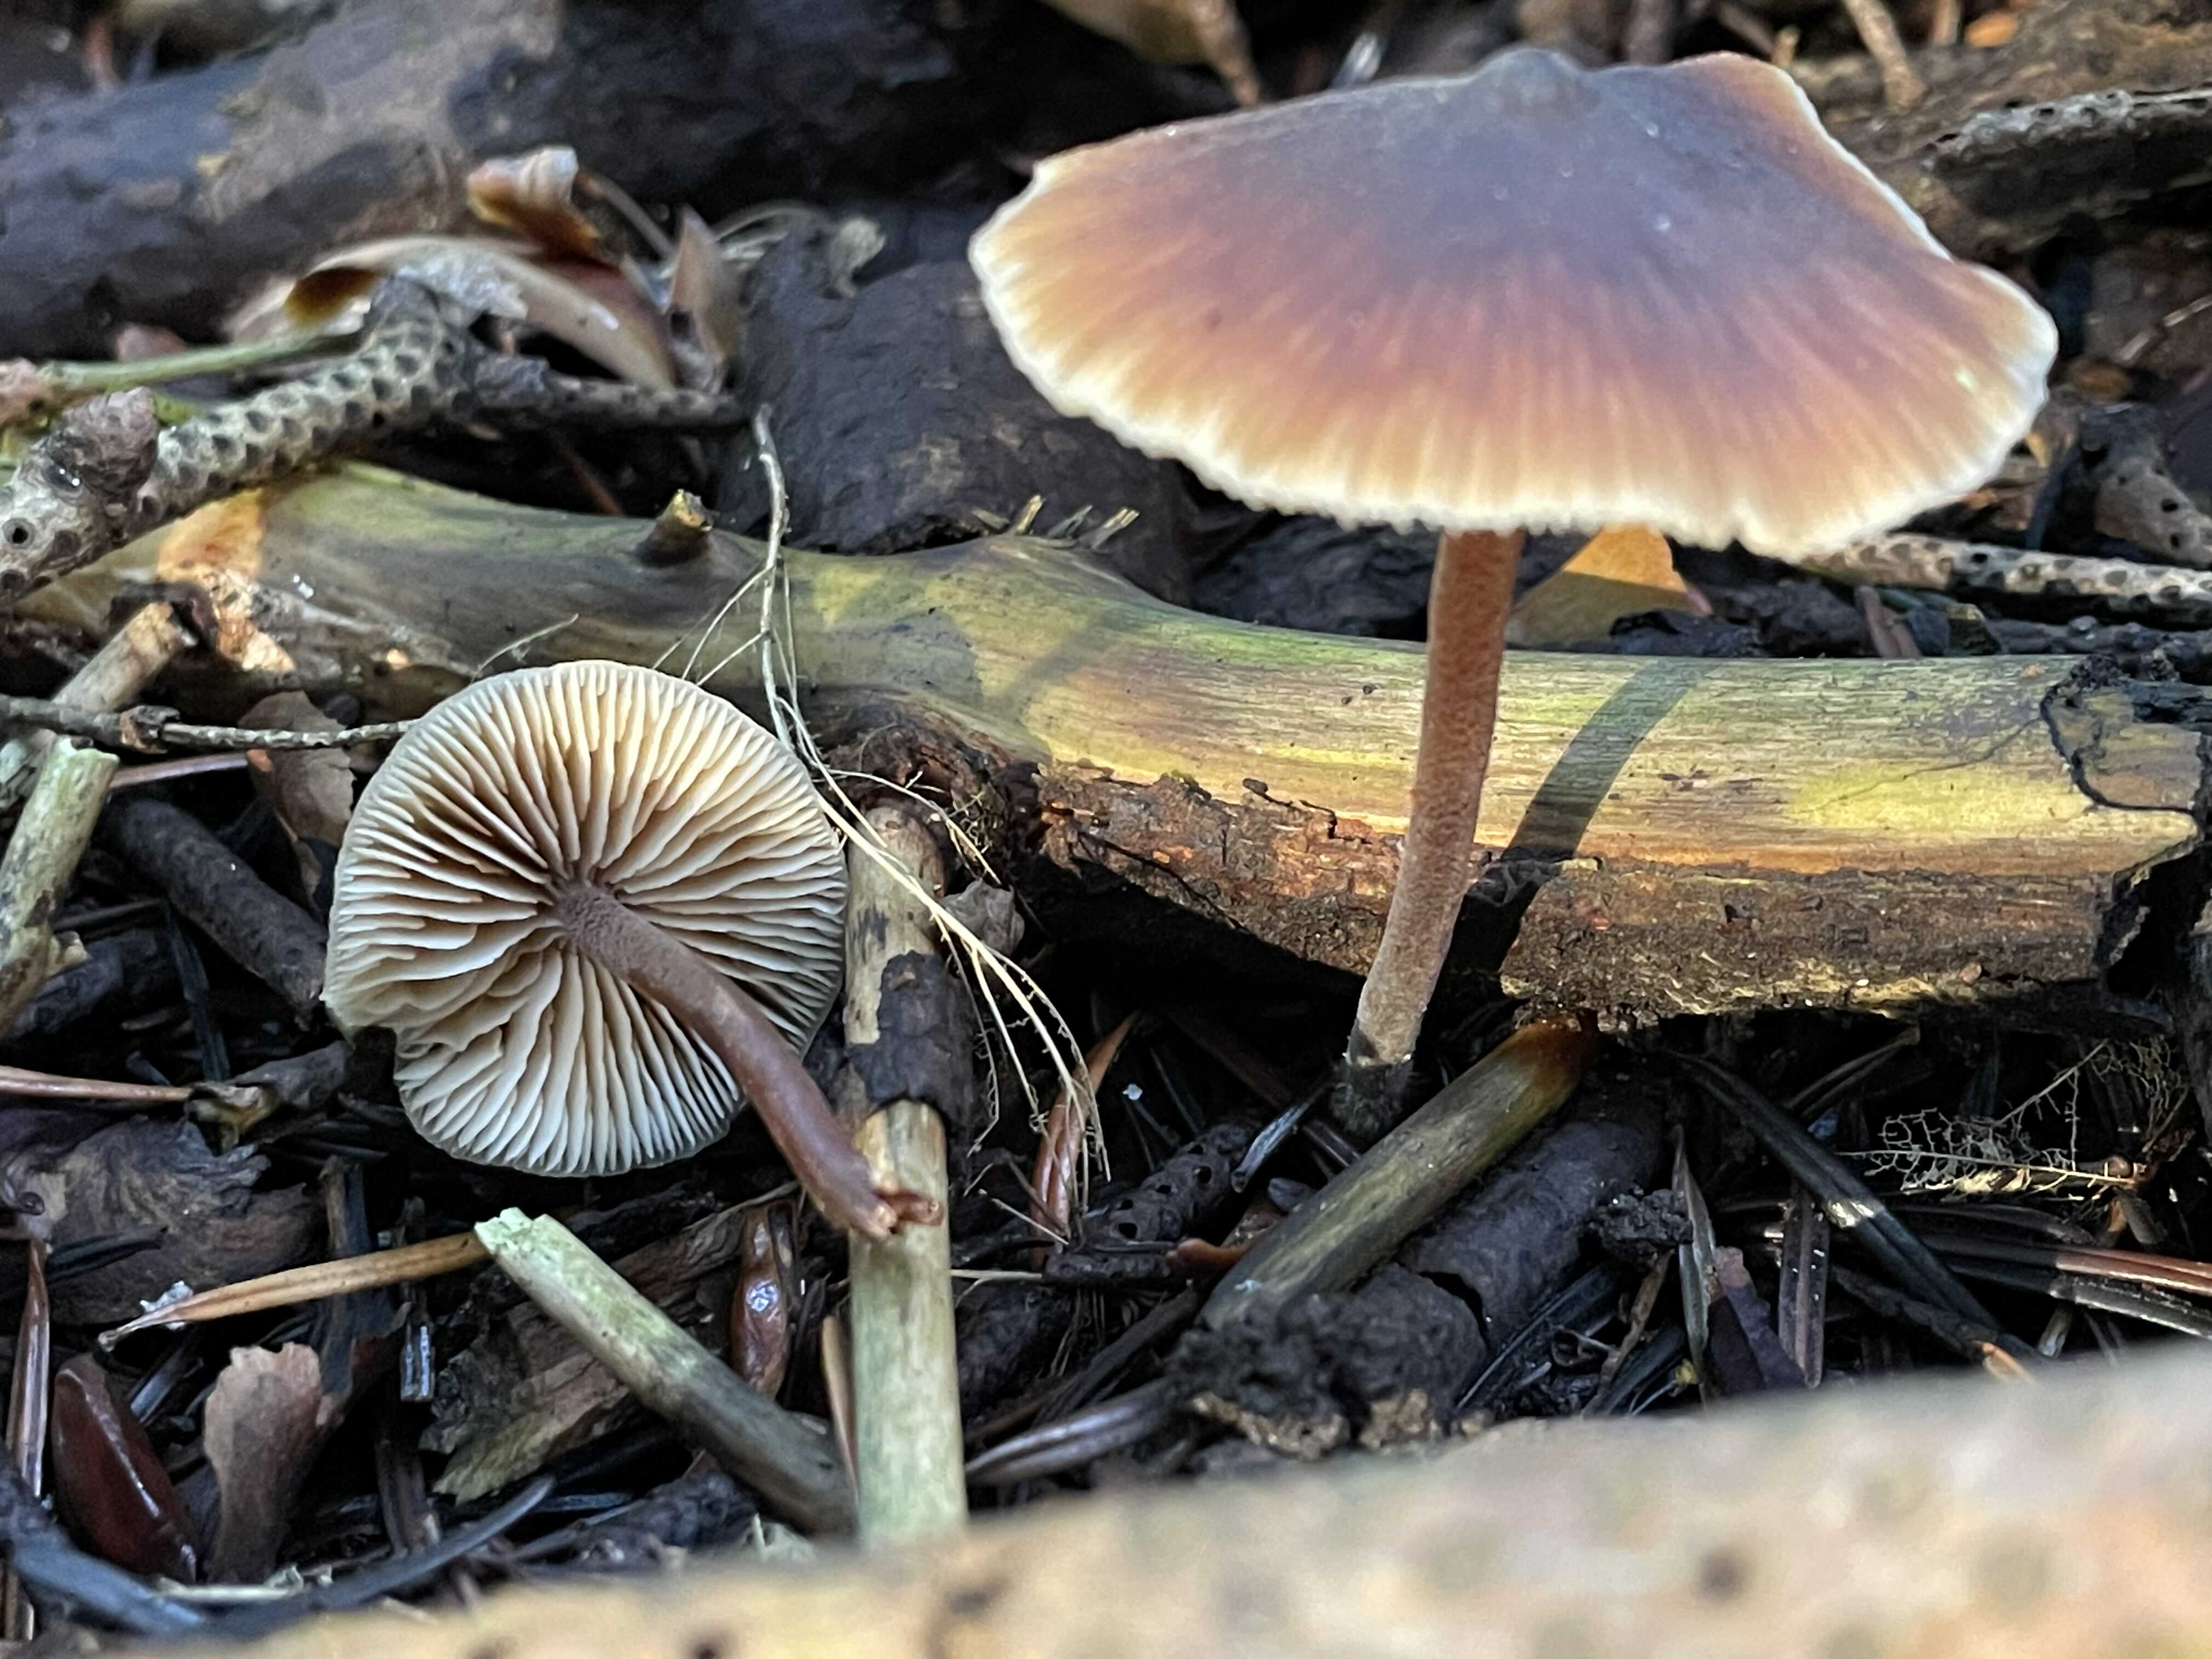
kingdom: Fungi
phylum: Basidiomycota
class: Agaricomycetes
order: Agaricales
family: Macrocystidiaceae
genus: Macrocystidia
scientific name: Macrocystidia cucumis
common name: agurkehat
